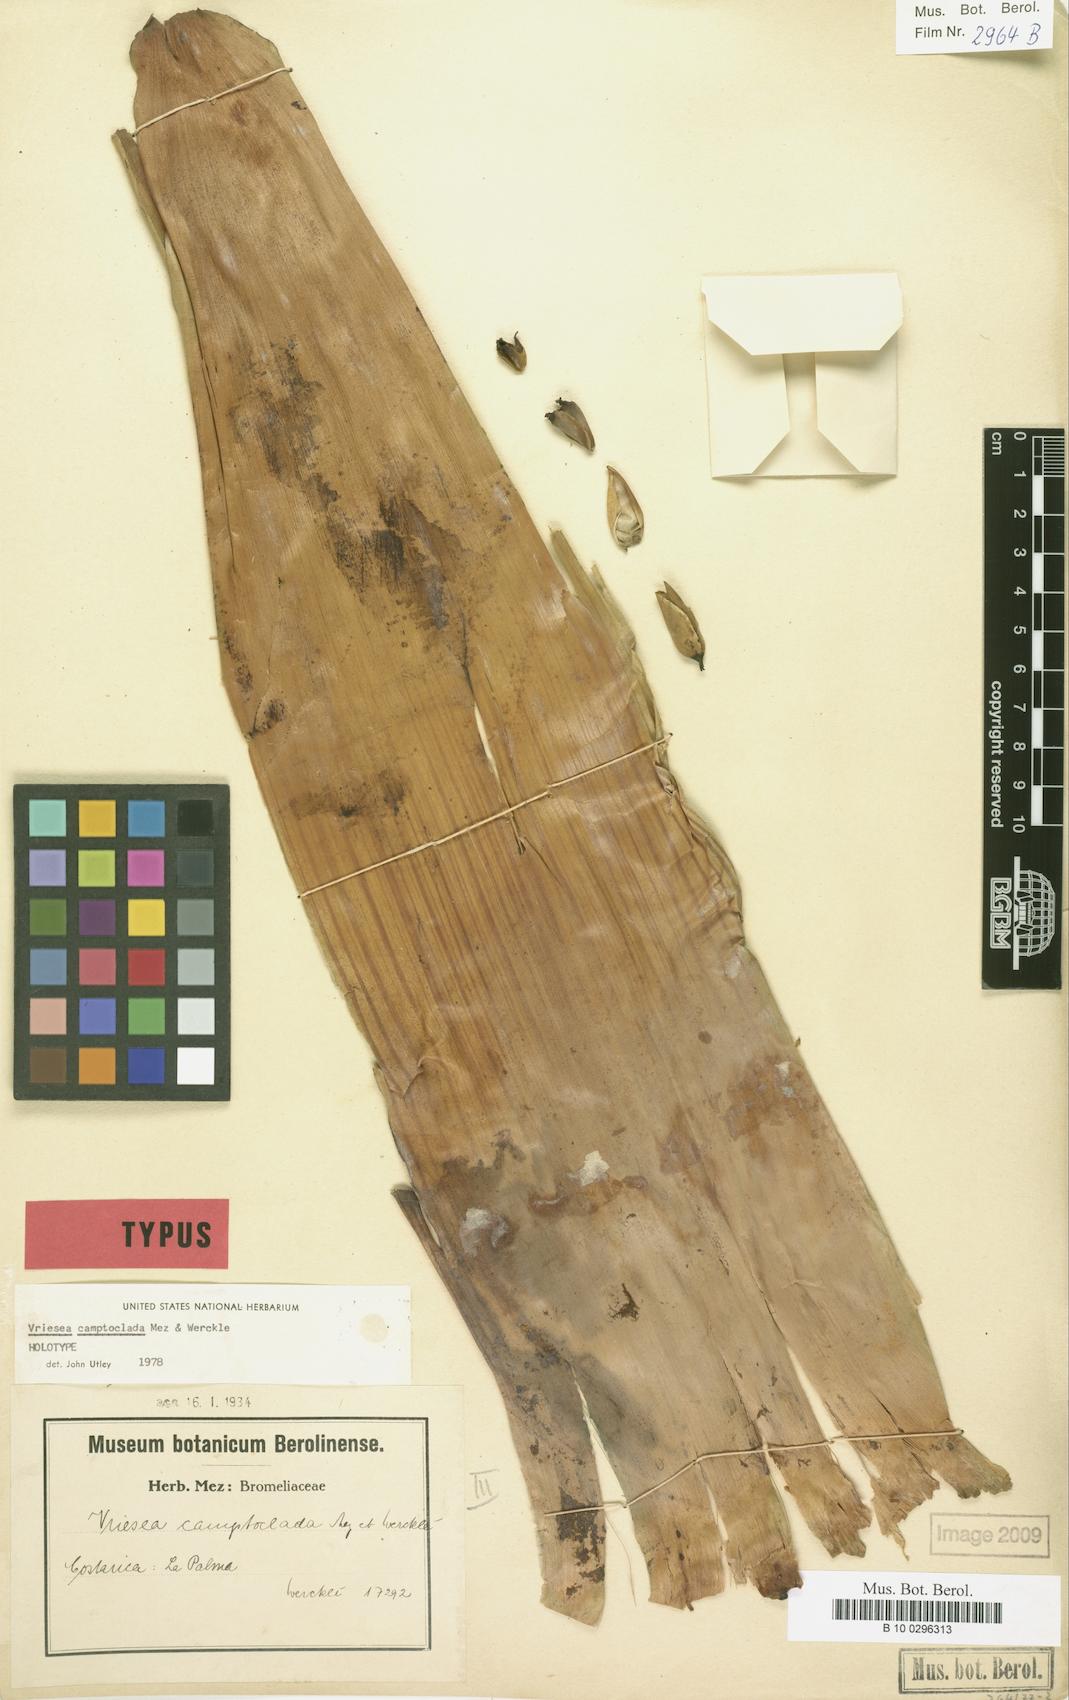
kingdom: Plantae
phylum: Tracheophyta
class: Liliopsida
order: Poales
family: Bromeliaceae
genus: Werauhia
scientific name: Werauhia camptoclada
